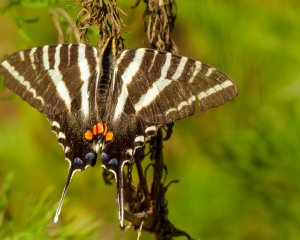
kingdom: Animalia
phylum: Arthropoda
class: Insecta
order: Lepidoptera
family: Papilionidae
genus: Protographium
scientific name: Protographium marcellus
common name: Zebra Swallowtail
